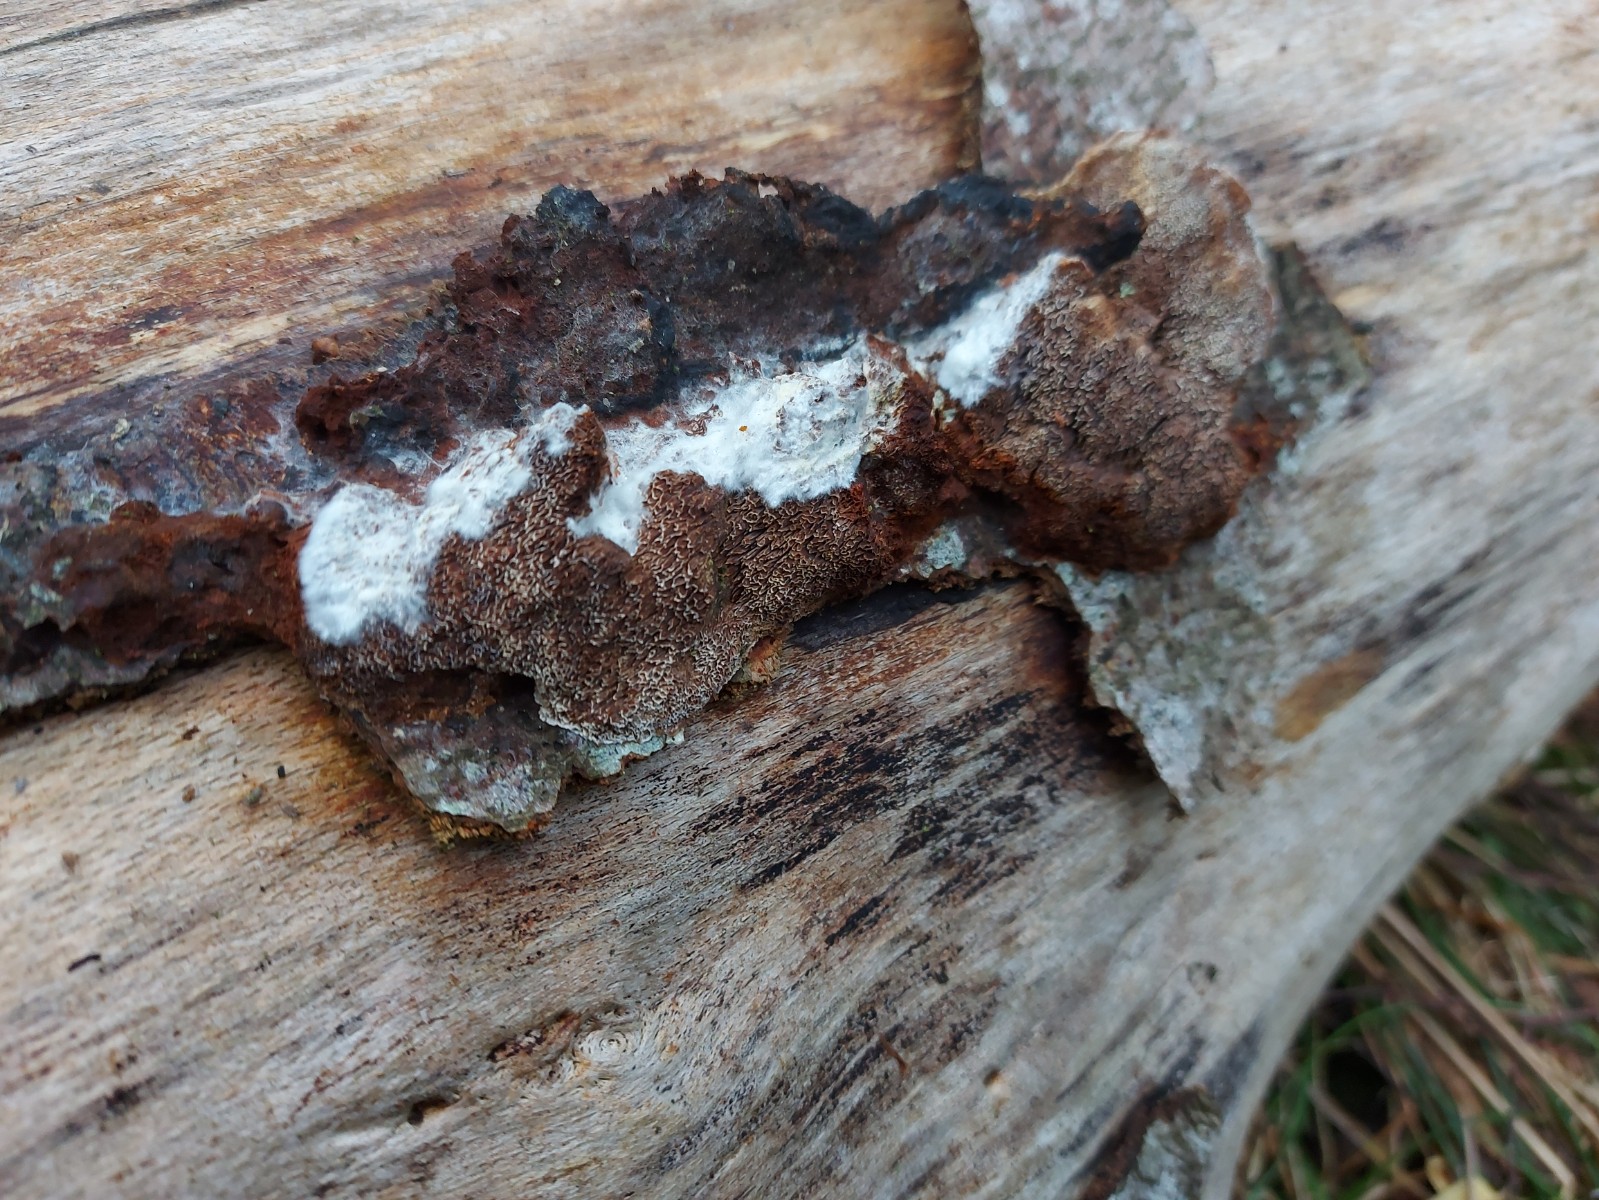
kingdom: Fungi
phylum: Basidiomycota
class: Agaricomycetes
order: Hymenochaetales
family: Hymenochaetaceae
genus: Mensularia
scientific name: Mensularia nodulosa
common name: bøge-spejlporesvamp
